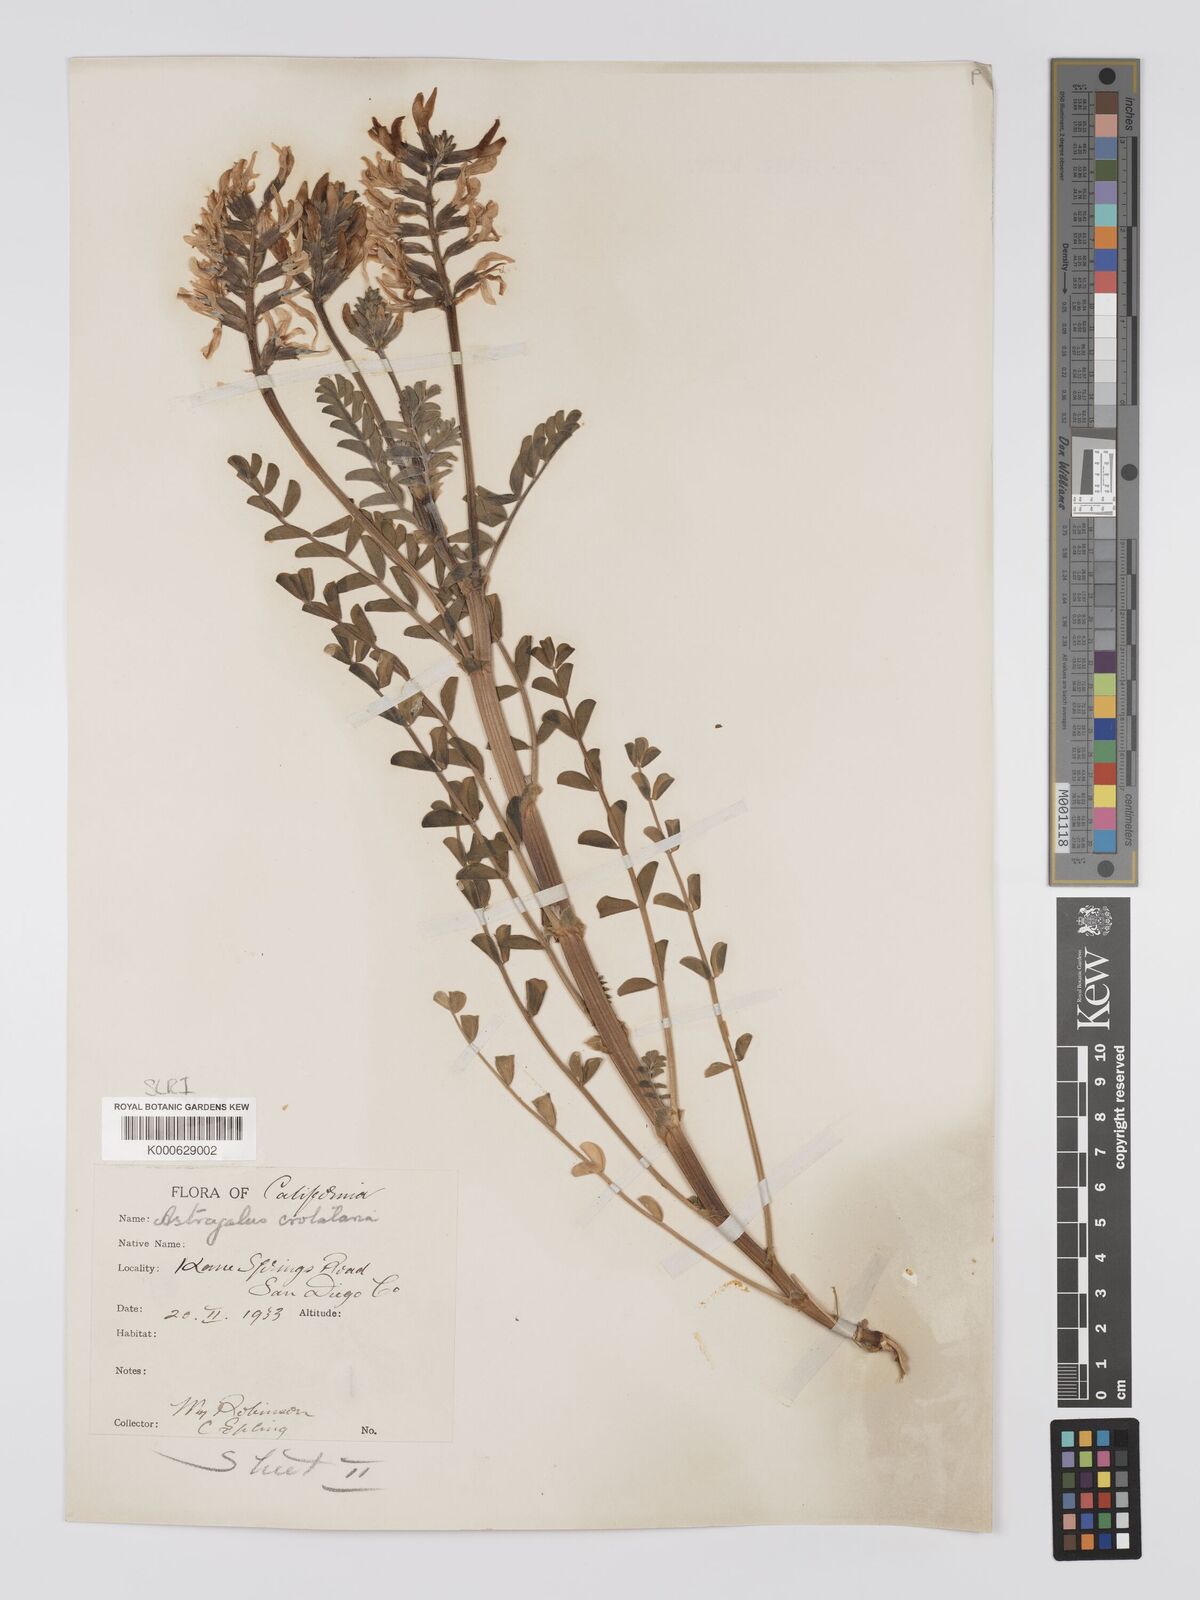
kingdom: Plantae
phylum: Tracheophyta
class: Magnoliopsida
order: Fabales
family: Fabaceae
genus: Astragalus
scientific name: Astragalus crotalariae
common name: Salton milkvetch
